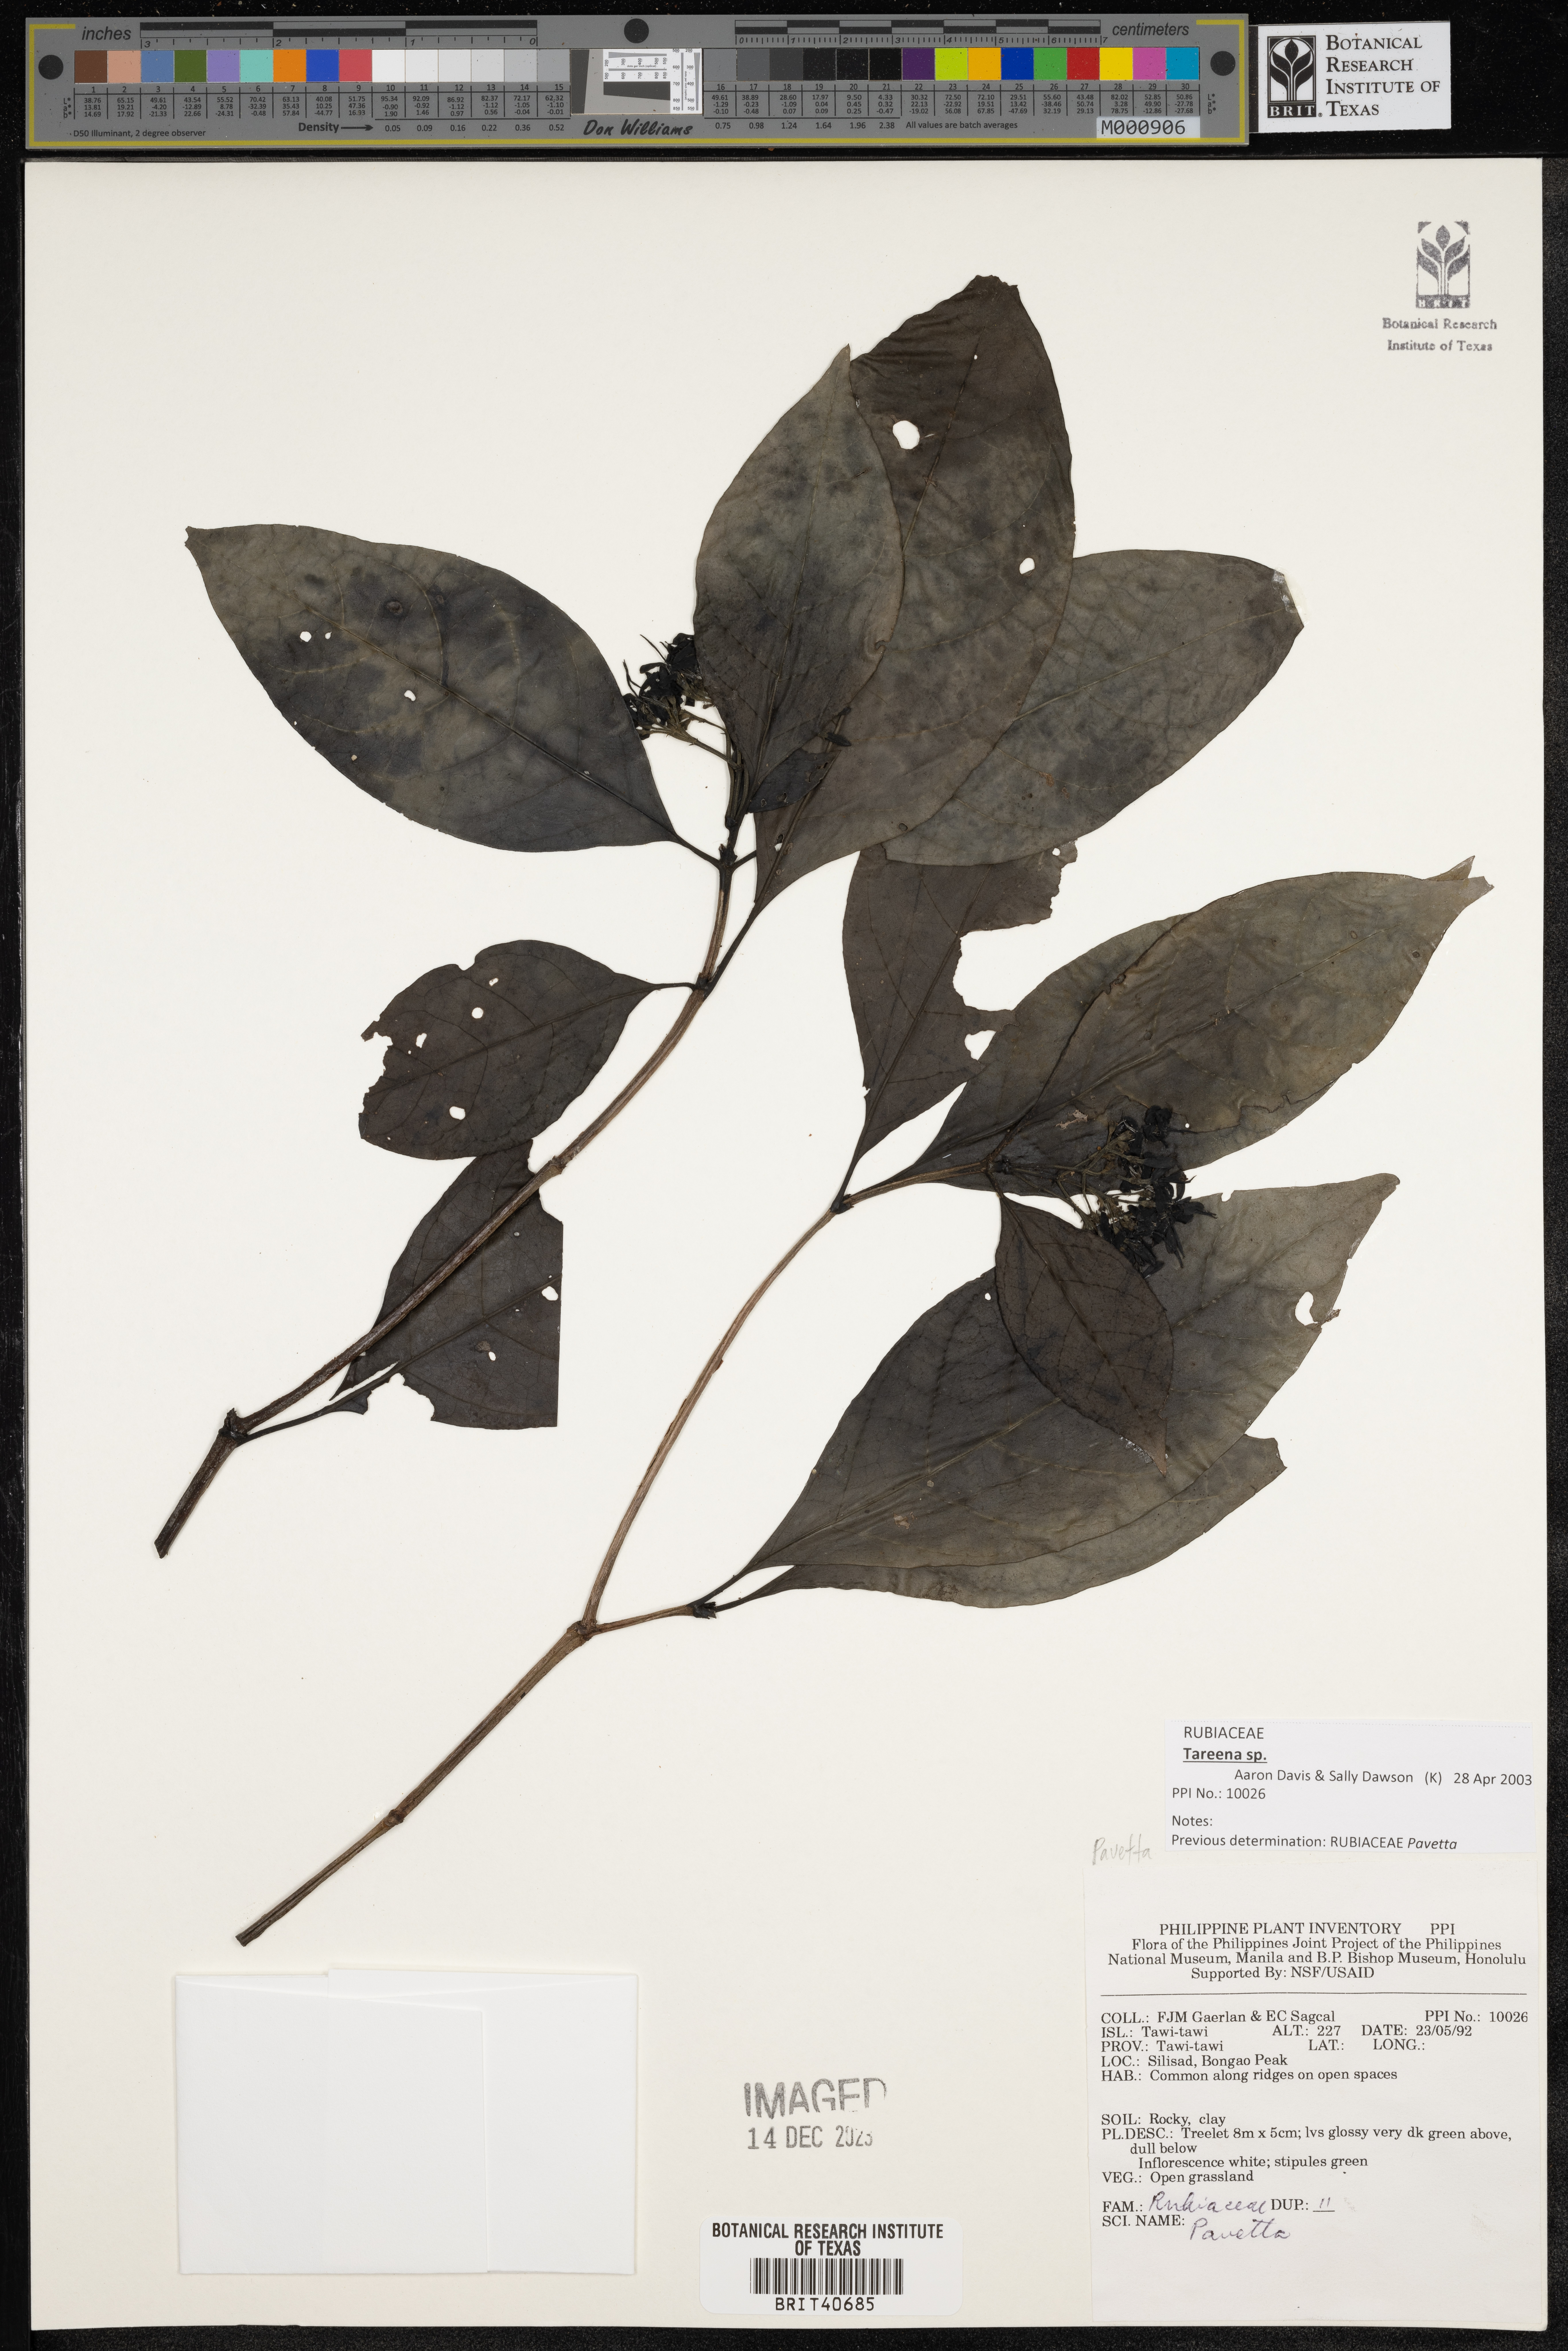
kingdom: Plantae
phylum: Tracheophyta
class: Magnoliopsida
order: Gentianales
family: Rubiaceae
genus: Pavetta
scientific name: Pavetta
